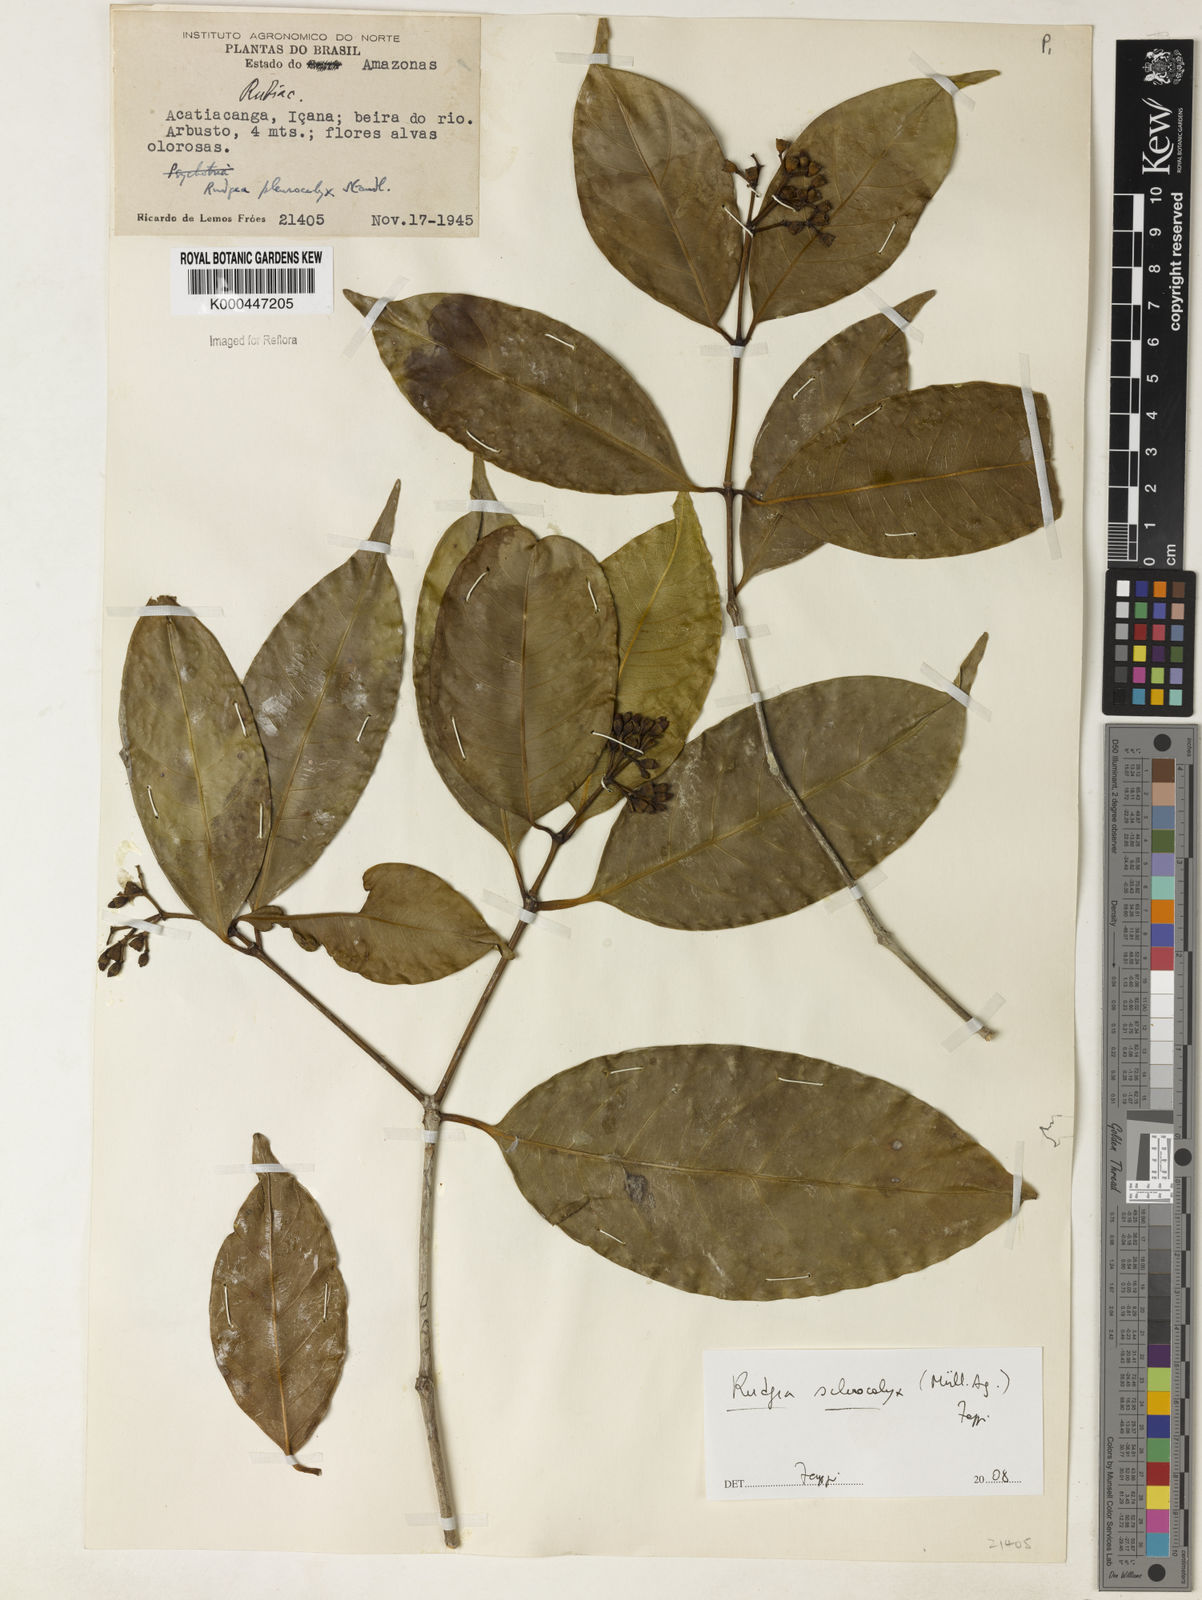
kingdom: Plantae
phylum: Tracheophyta
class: Magnoliopsida
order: Gentianales
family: Rubiaceae
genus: Rudgea
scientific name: Rudgea sclerocalyx
